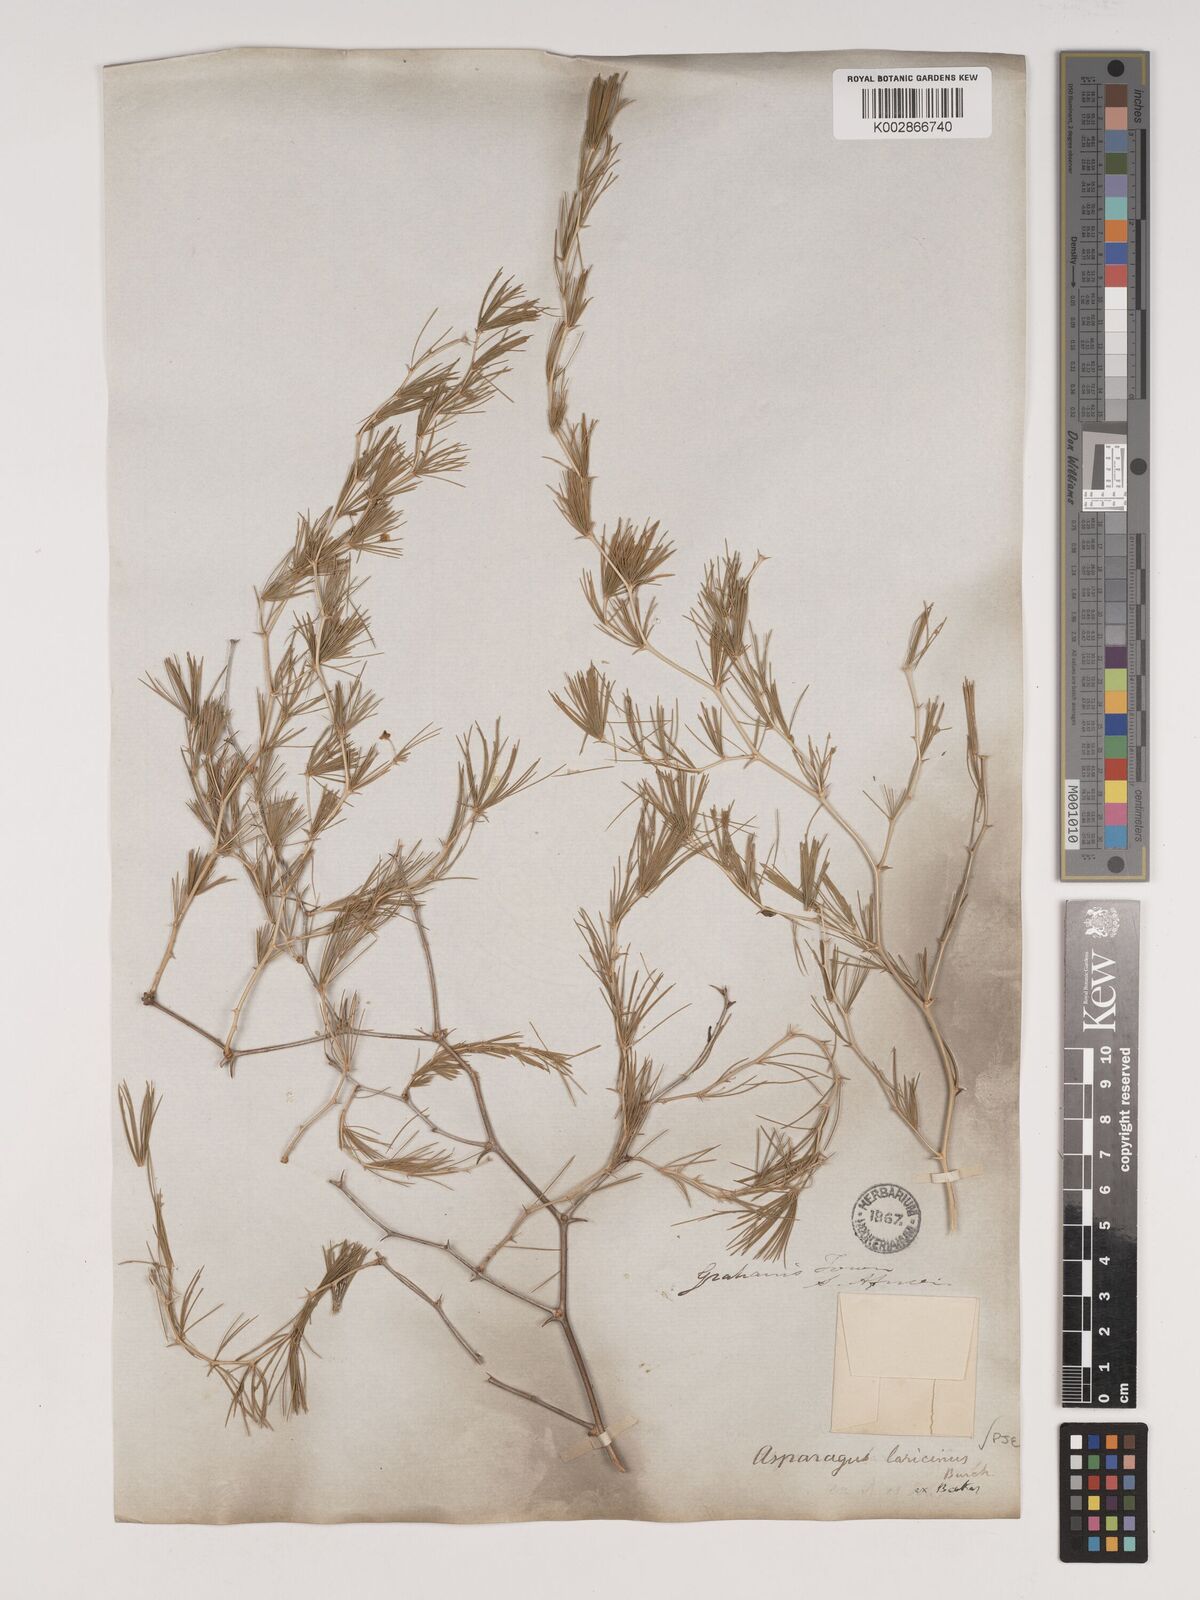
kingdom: Plantae
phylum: Tracheophyta
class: Liliopsida
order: Asparagales
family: Asparagaceae
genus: Asparagus
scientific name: Asparagus laricinus
